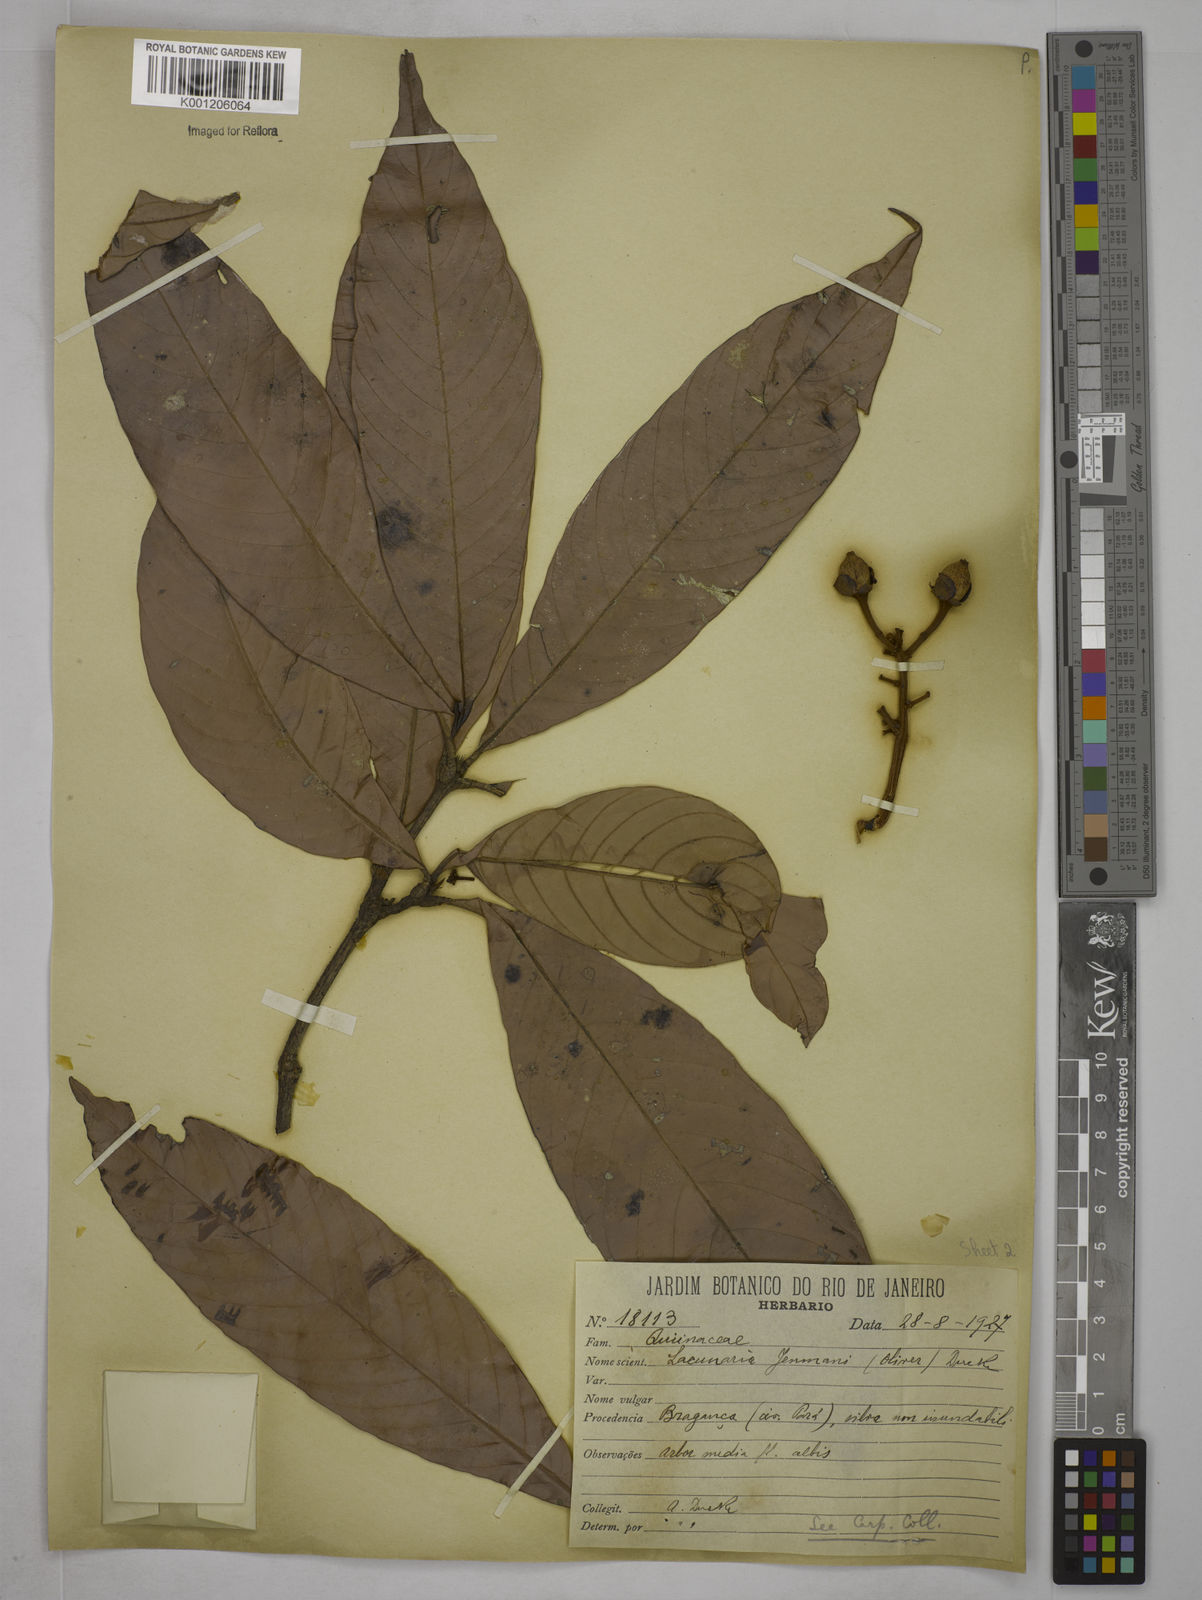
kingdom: Plantae
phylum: Tracheophyta
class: Magnoliopsida
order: Malpighiales
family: Quiinaceae
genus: Lacunaria
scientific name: Lacunaria jenmanii
